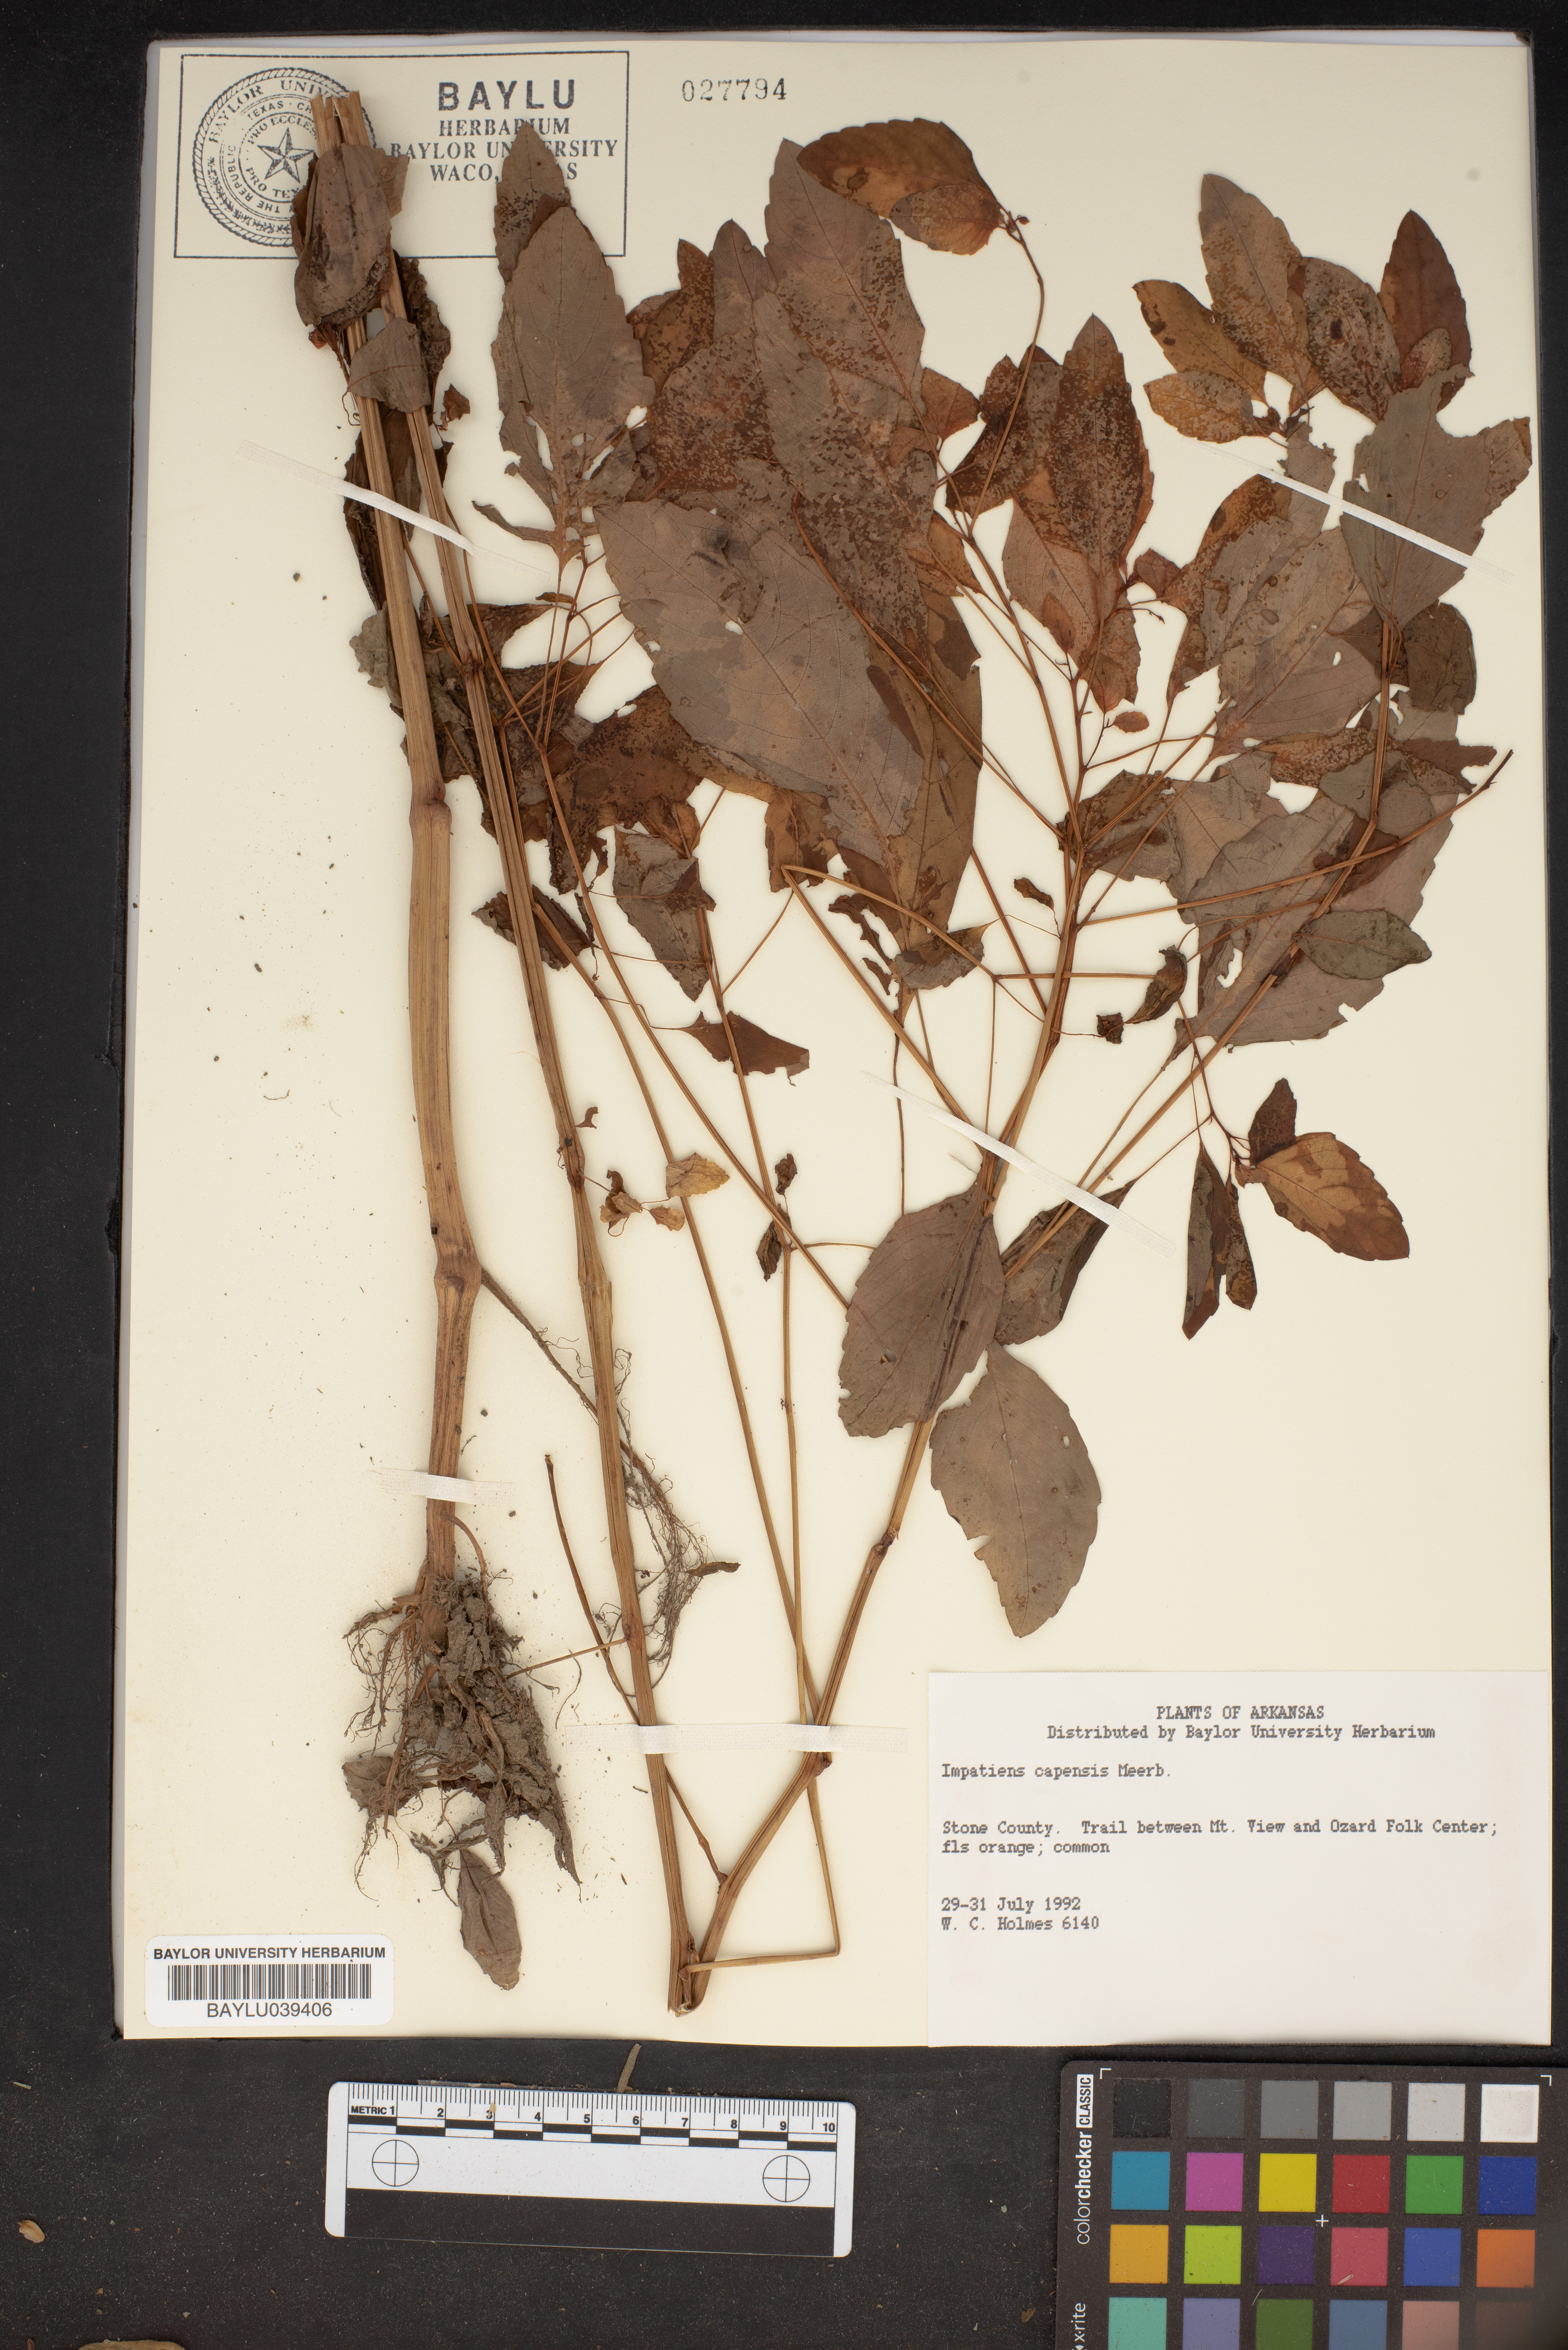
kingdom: Plantae
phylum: Tracheophyta
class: Magnoliopsida
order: Ericales
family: Balsaminaceae
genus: Impatiens
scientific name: Impatiens capensis
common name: Orange balsam
